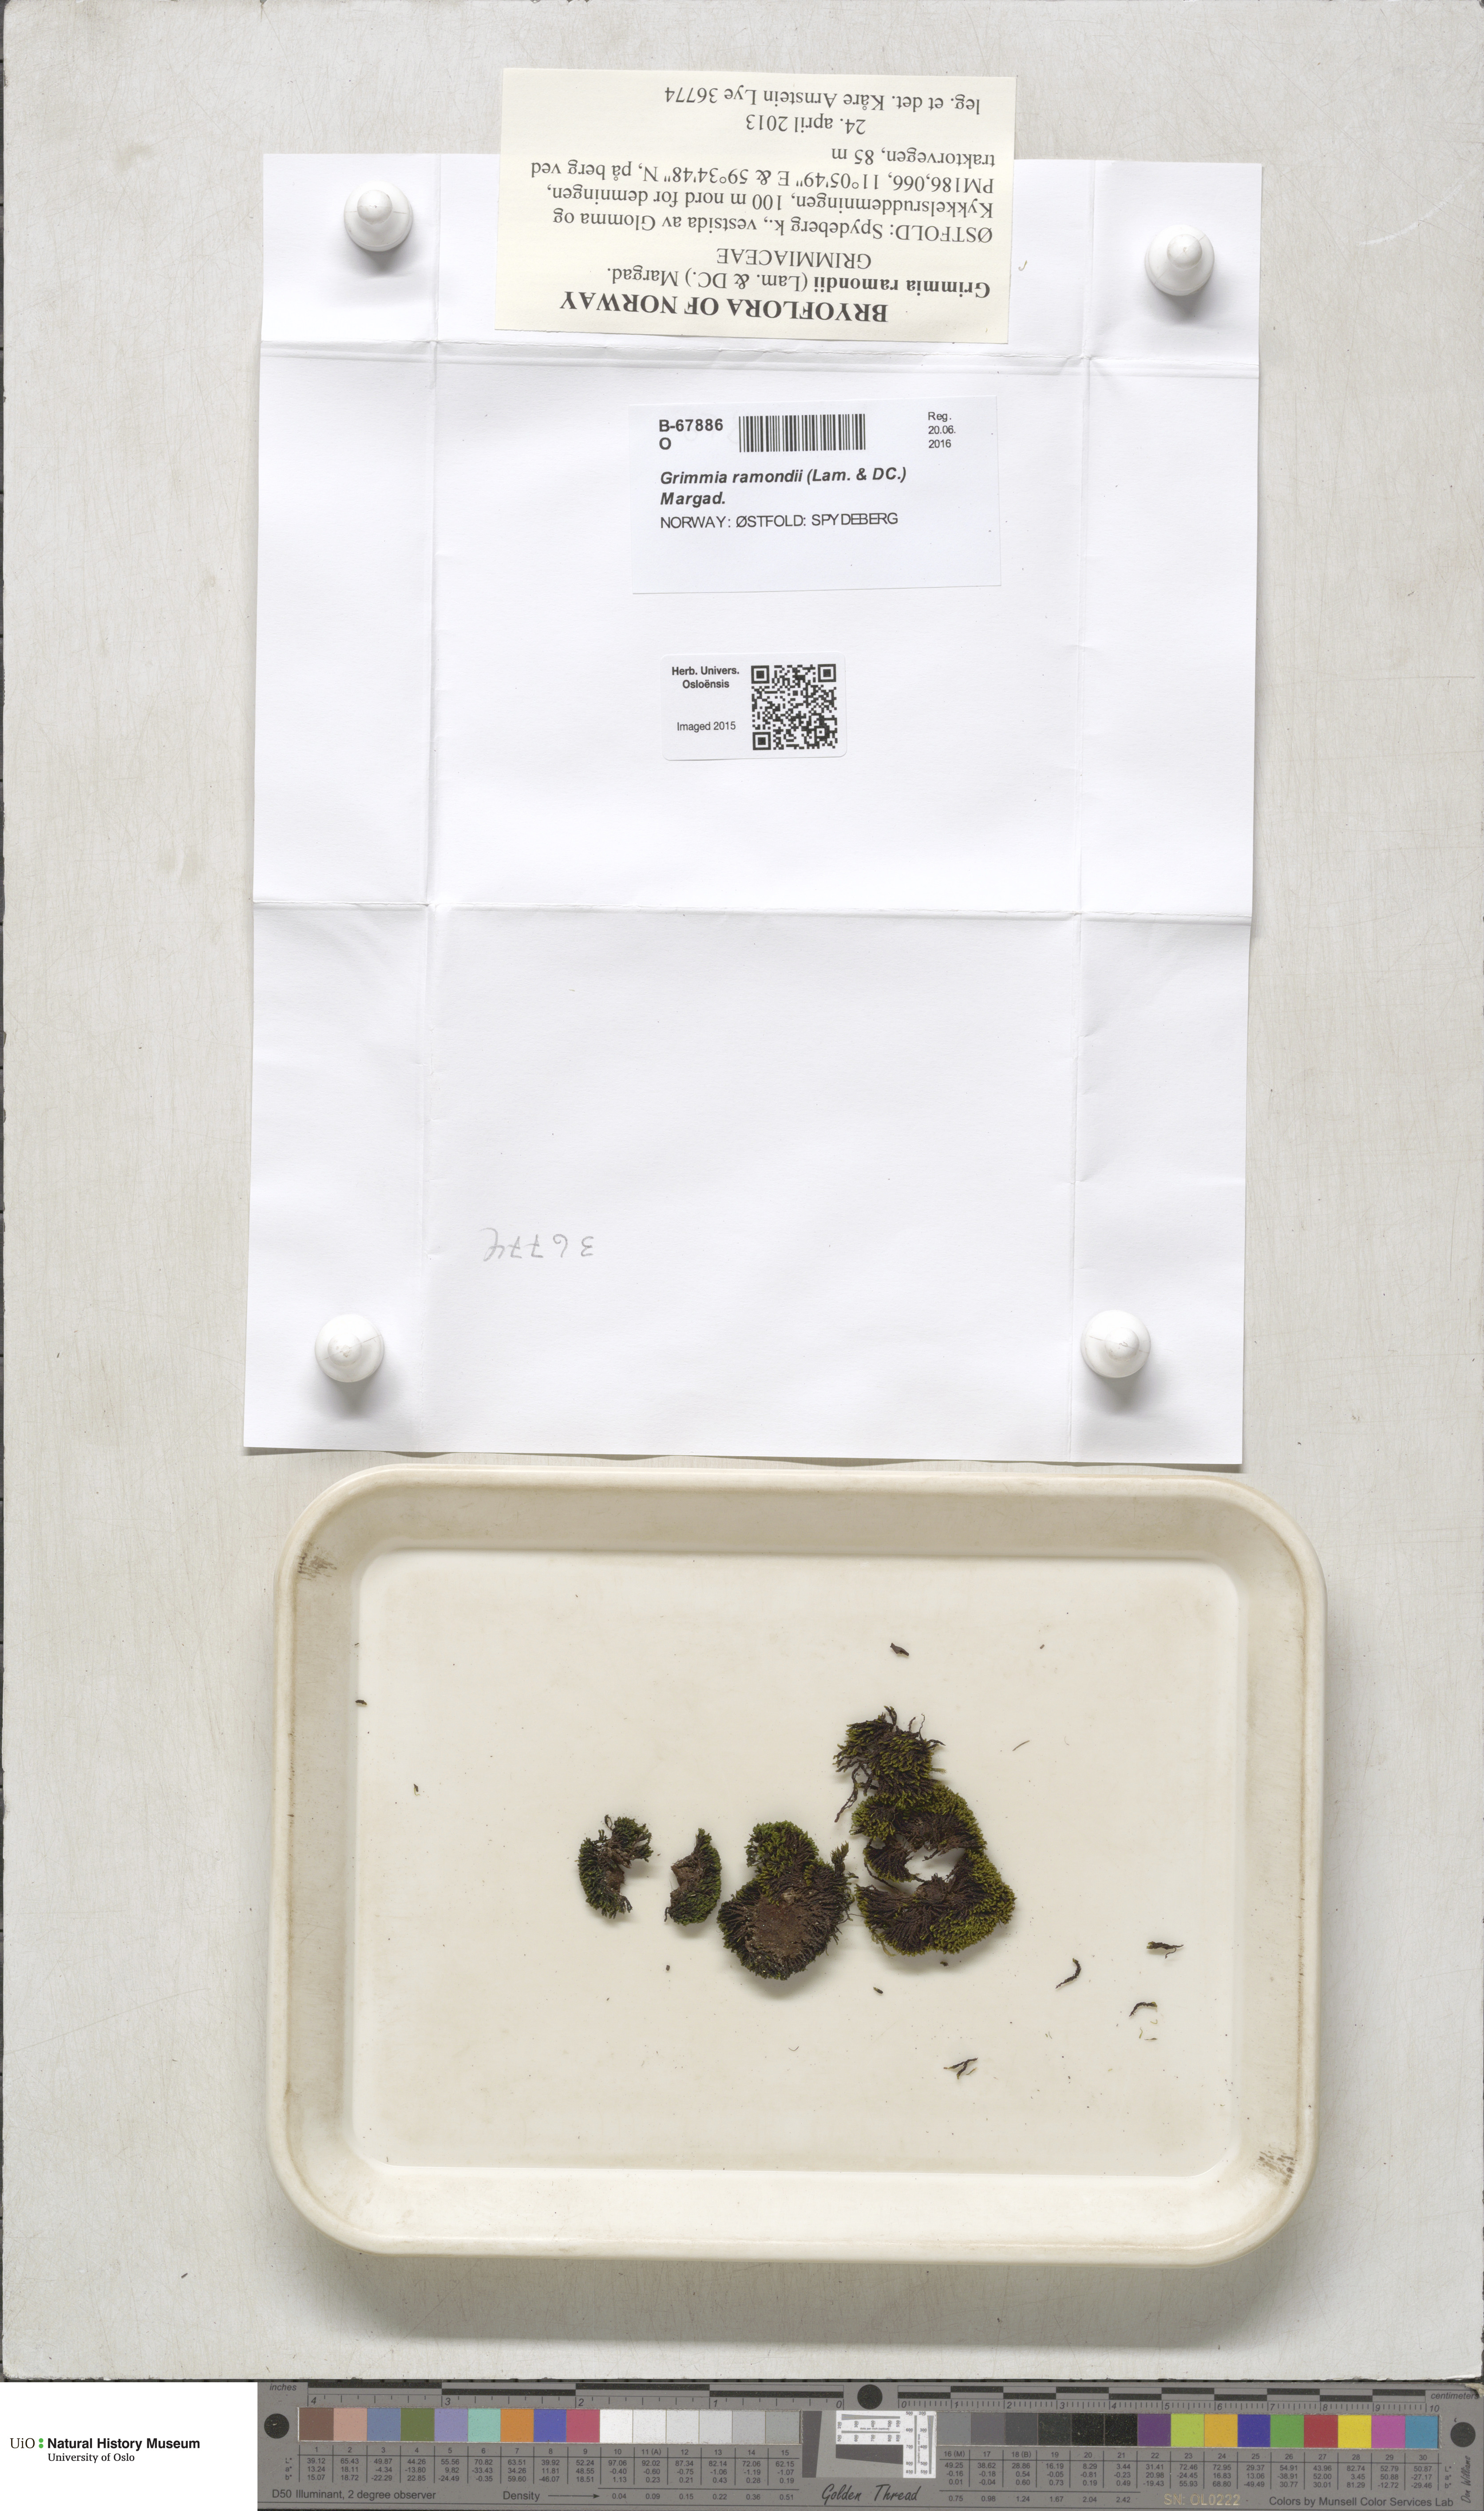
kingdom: Plantae
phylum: Bryophyta
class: Bryopsida
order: Grimmiales
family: Grimmiaceae
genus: Grimmia
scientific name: Grimmia ramondii
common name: Spreading-leaved grimmia
